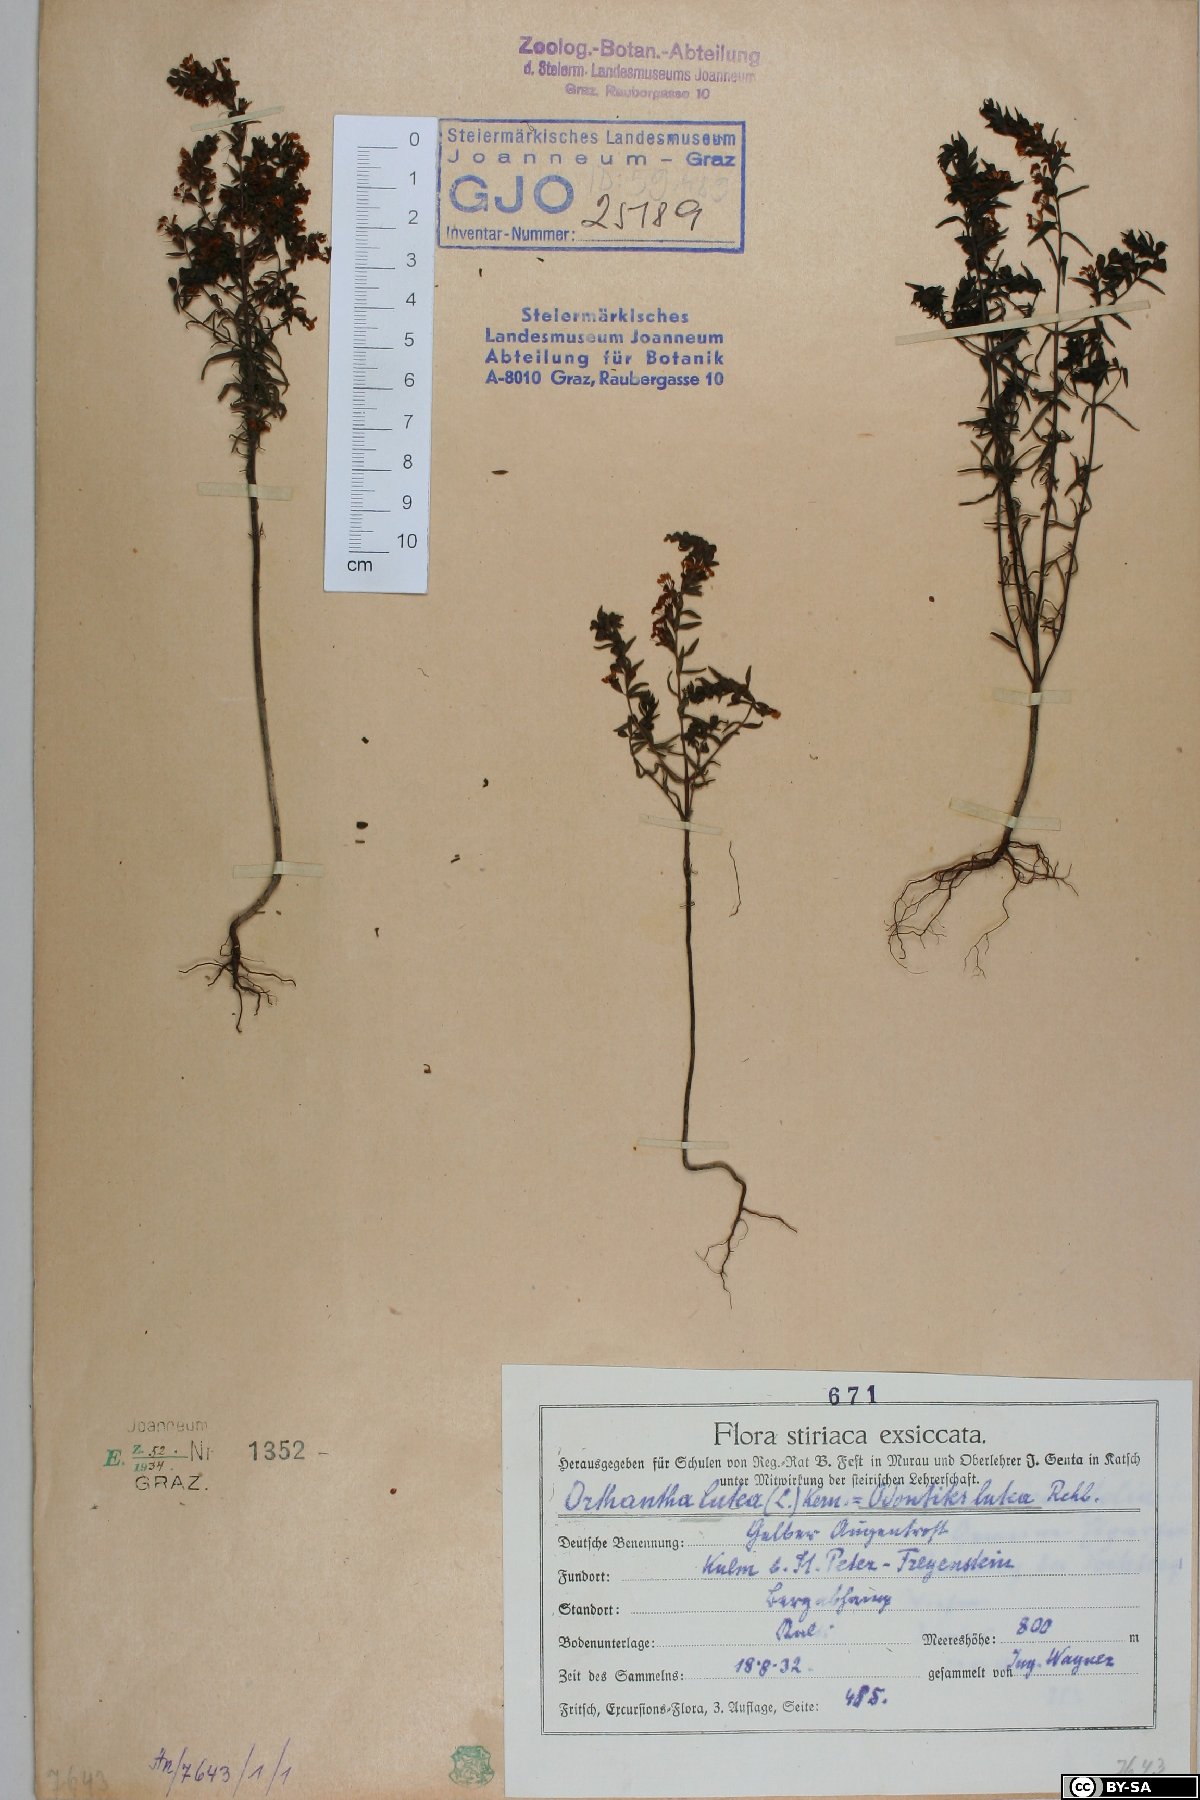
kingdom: Plantae
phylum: Tracheophyta
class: Magnoliopsida
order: Lamiales
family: Orobanchaceae
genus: Odontites
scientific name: Odontites luteus
